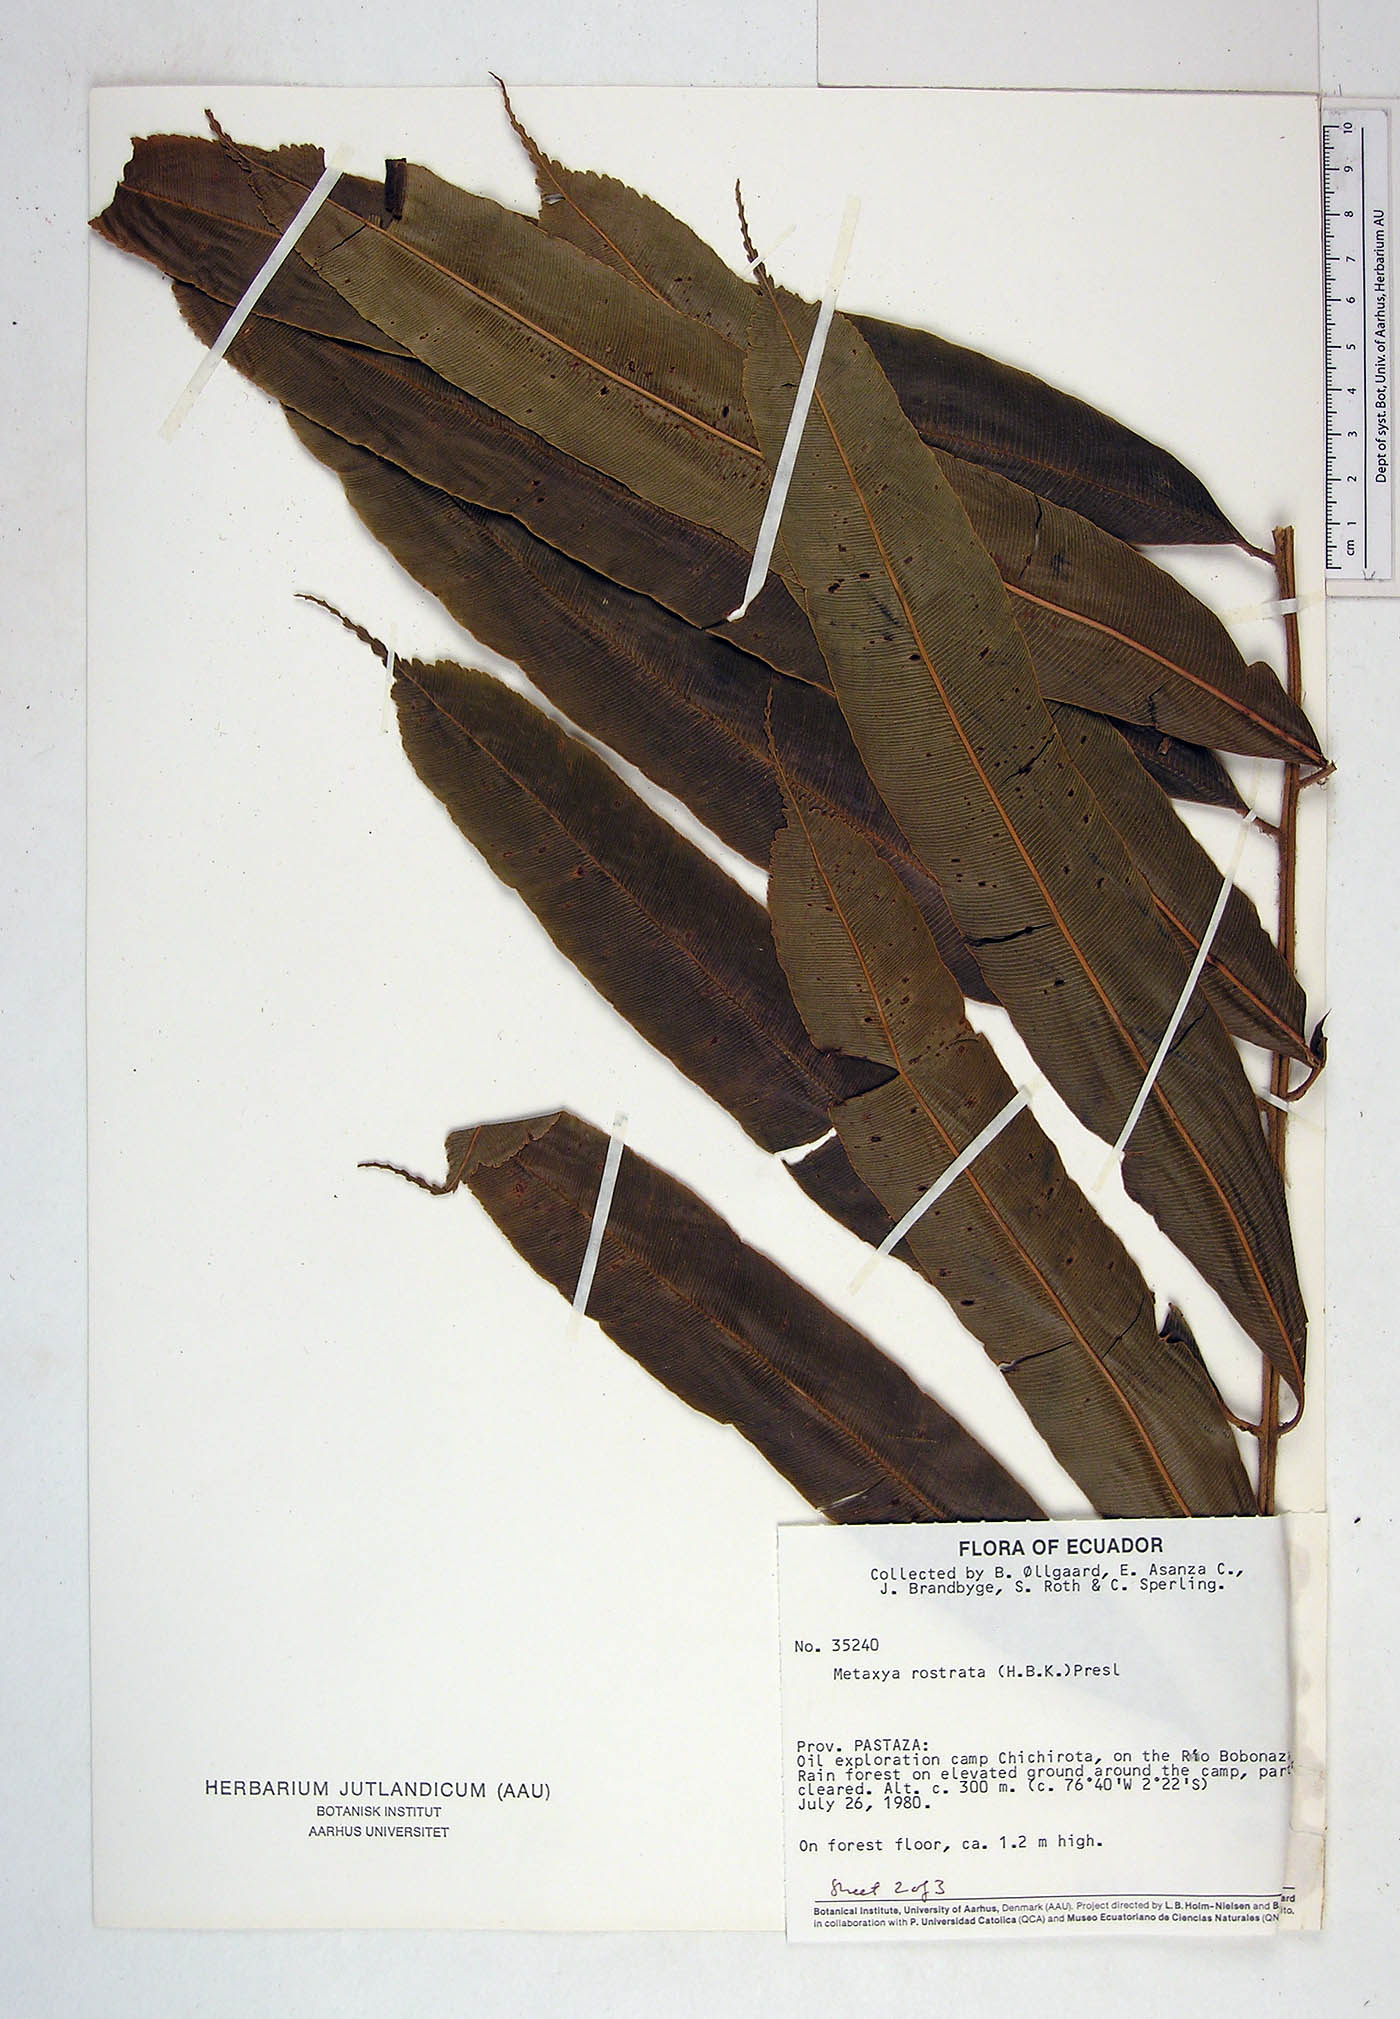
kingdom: Plantae
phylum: Tracheophyta
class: Polypodiopsida
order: Cyatheales
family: Metaxyaceae
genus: Metaxya
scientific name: Metaxya parkeri
